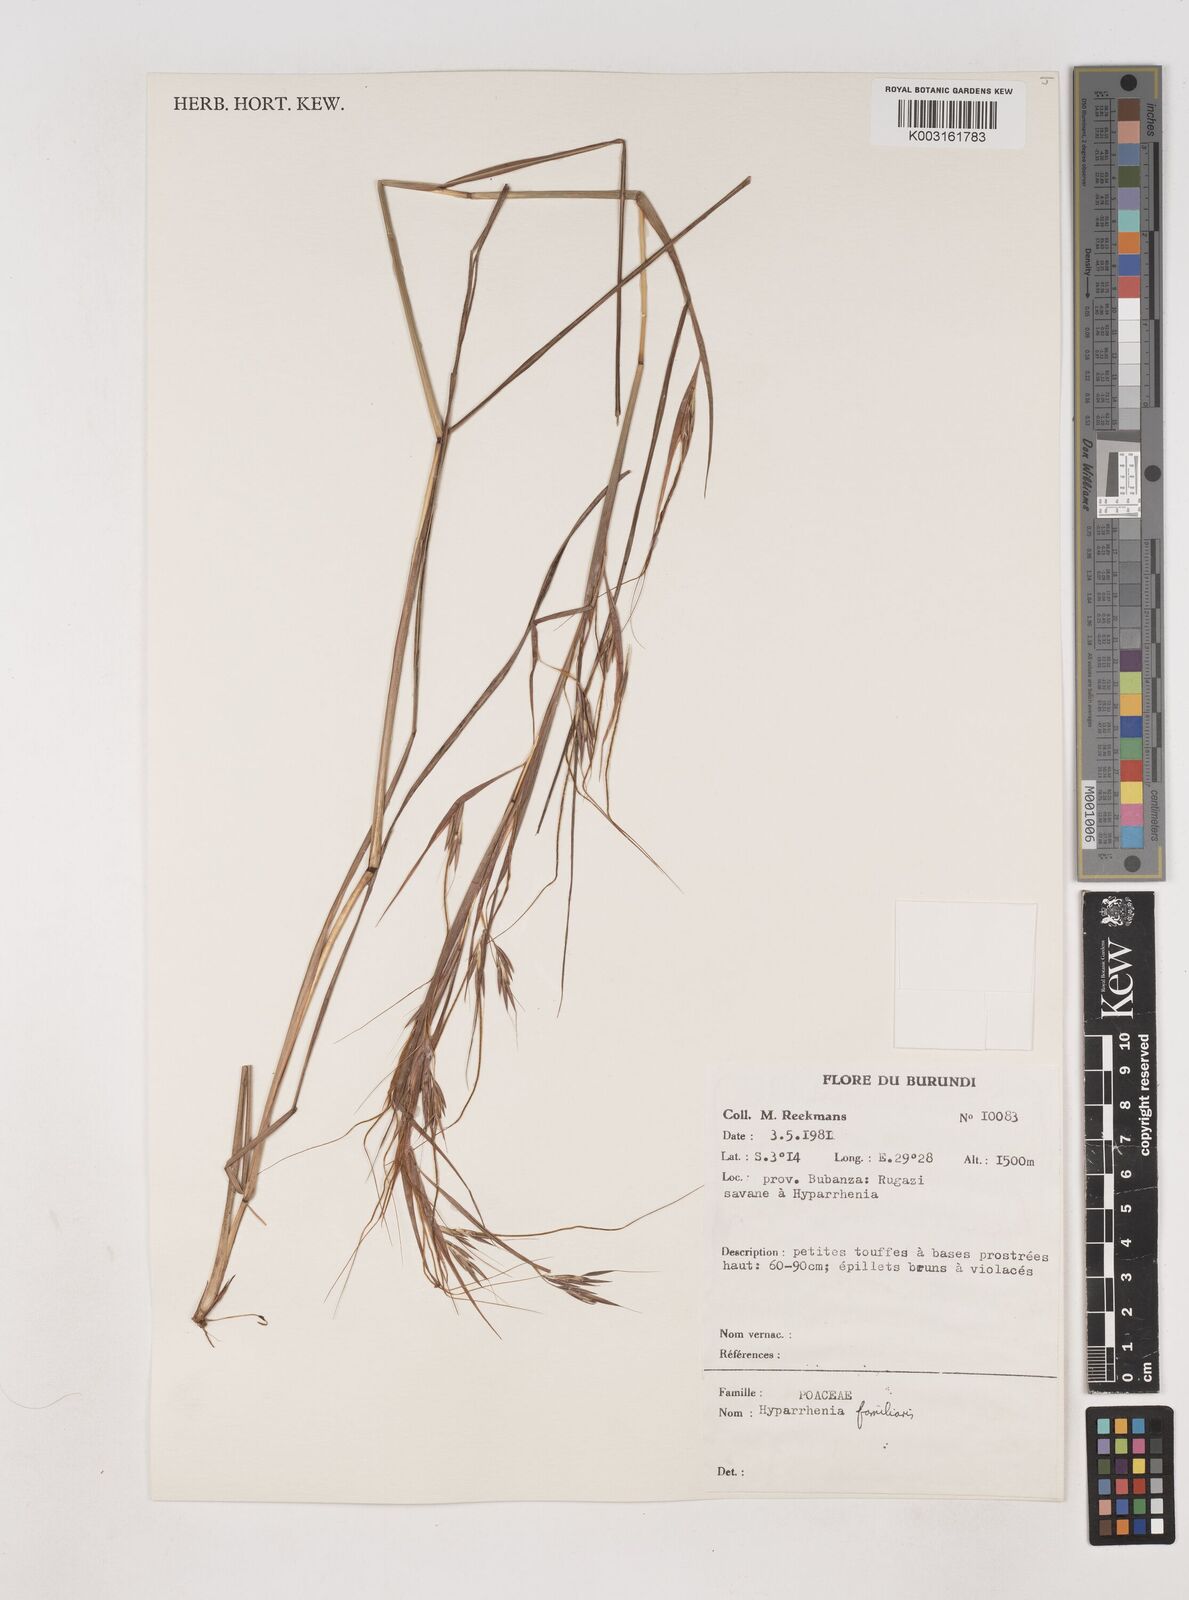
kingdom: Plantae
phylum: Tracheophyta
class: Liliopsida
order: Poales
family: Poaceae
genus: Hyparrhenia
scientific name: Hyparrhenia familiaris
